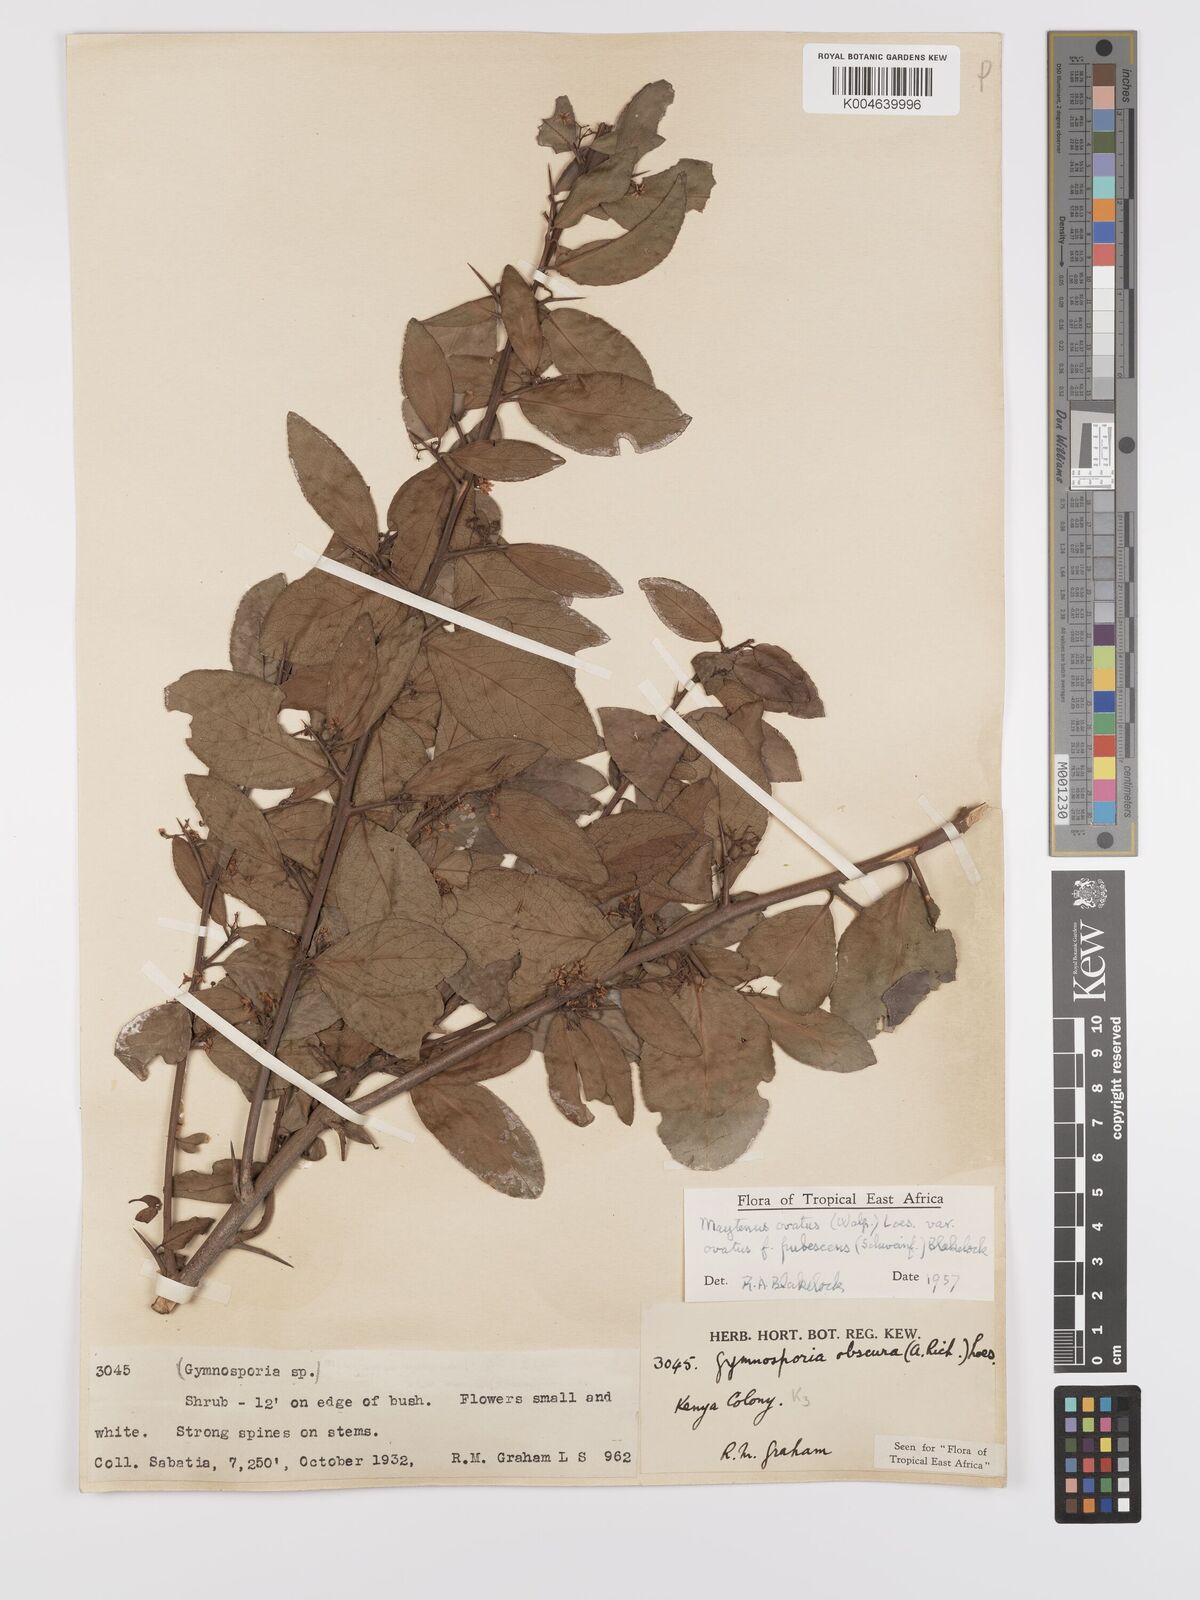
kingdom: Plantae
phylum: Tracheophyta
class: Magnoliopsida
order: Celastrales
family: Celastraceae
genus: Gymnosporia
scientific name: Gymnosporia arbutifolia
